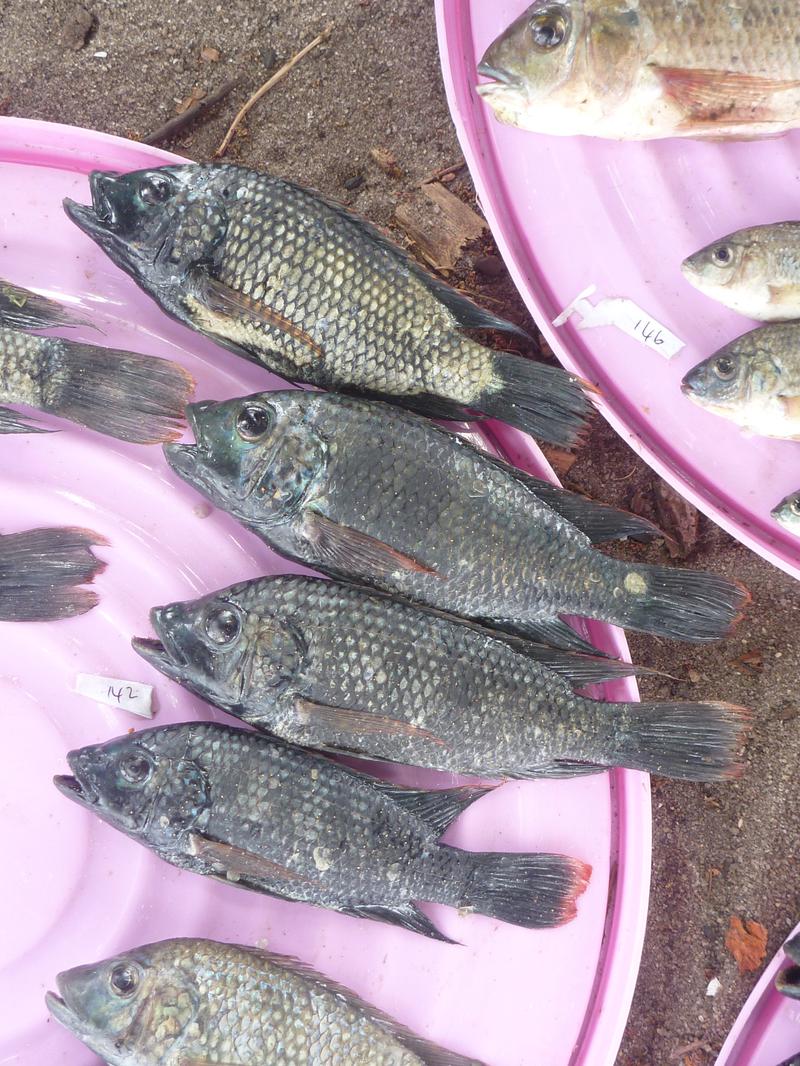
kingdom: Animalia
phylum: Chordata
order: Perciformes
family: Cichlidae
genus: Oreochromis
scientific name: Oreochromis shiranus
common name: Chilwa tilapia
